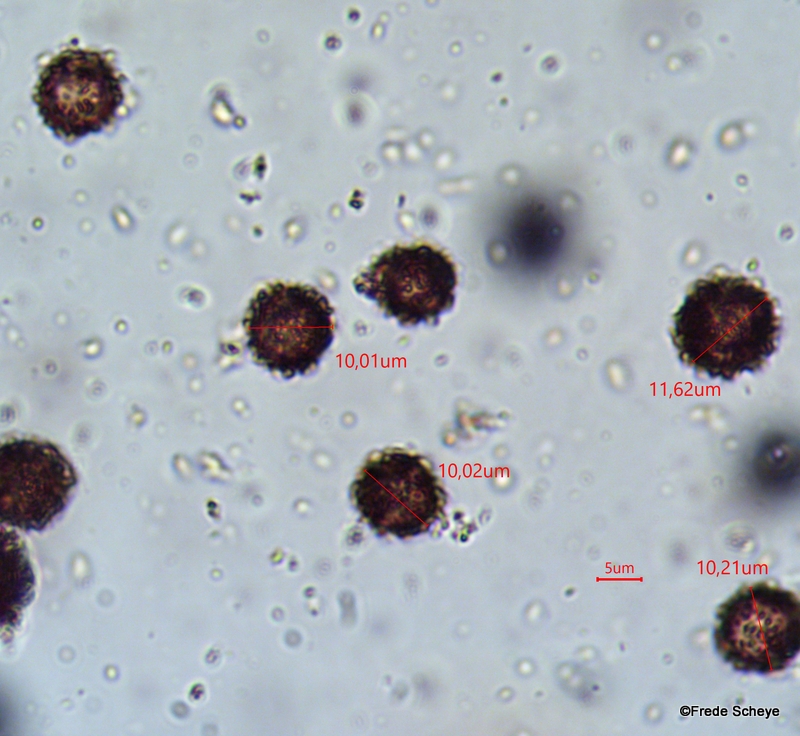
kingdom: Fungi
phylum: Basidiomycota
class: Agaricomycetes
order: Boletales
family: Sclerodermataceae
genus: Scleroderma
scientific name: Scleroderma verrucosum
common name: stilket bruskbold
